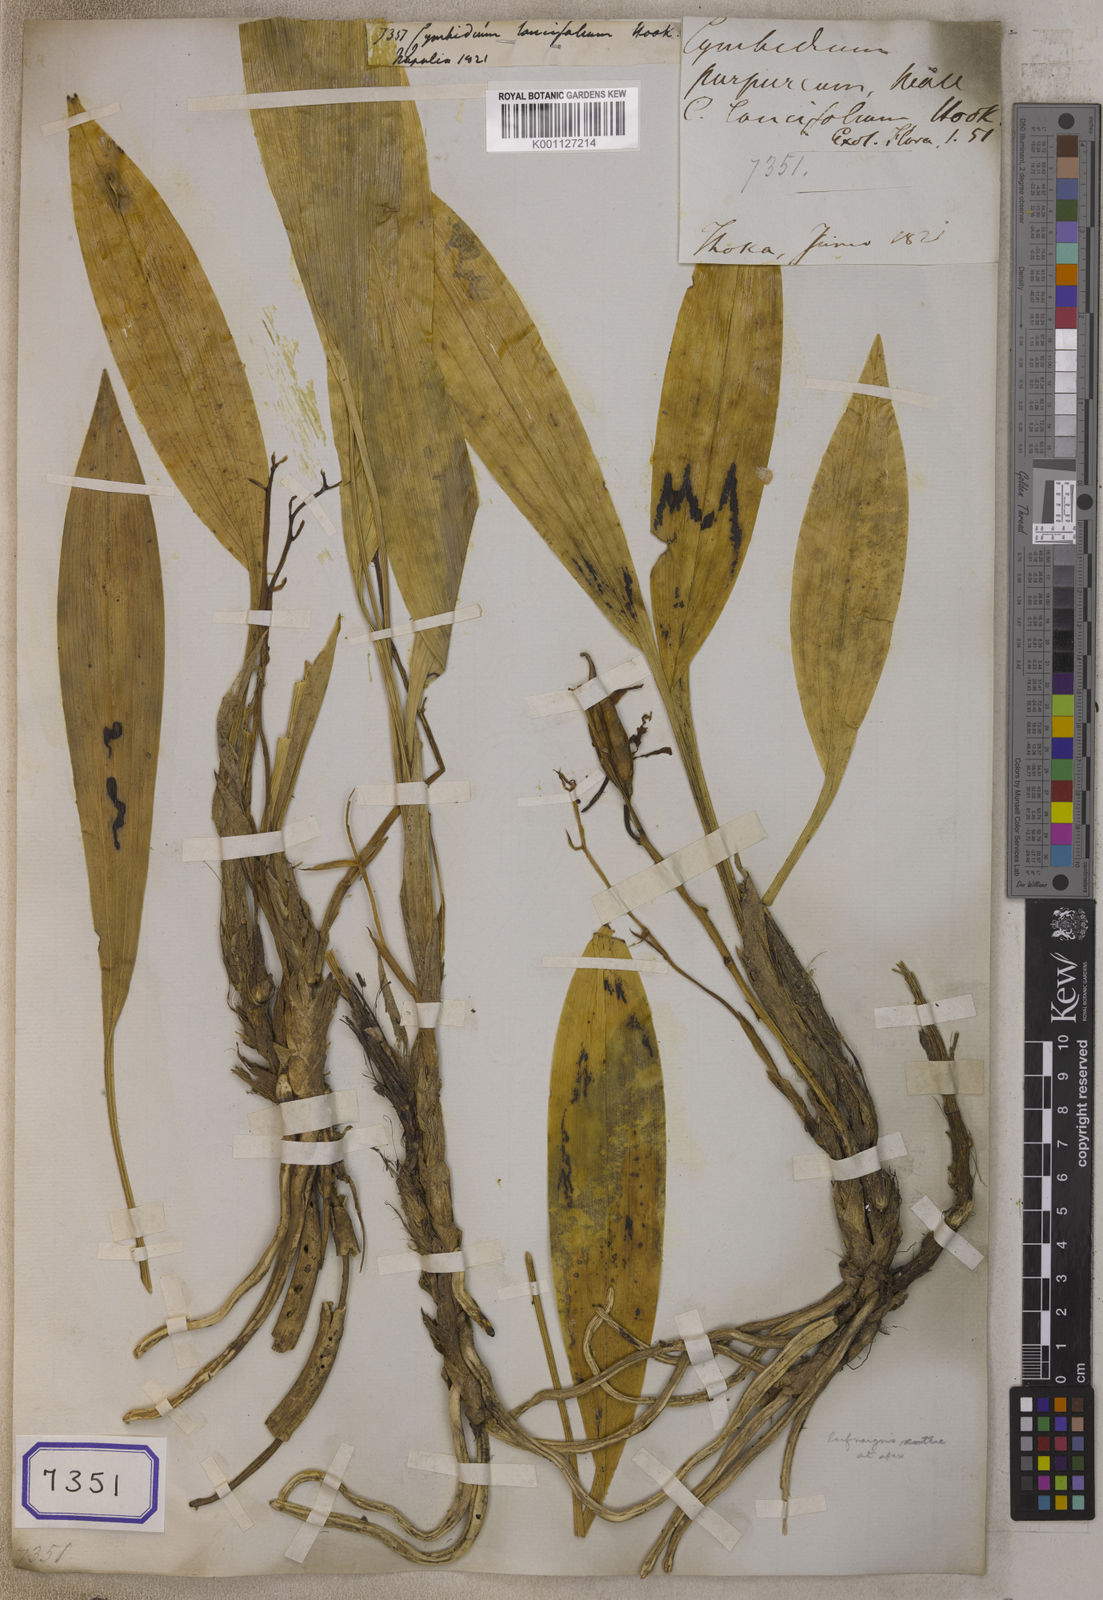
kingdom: Plantae
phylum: Tracheophyta
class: Liliopsida
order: Asparagales
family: Orchidaceae
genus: Cymbidium
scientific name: Cymbidium lancifolium
